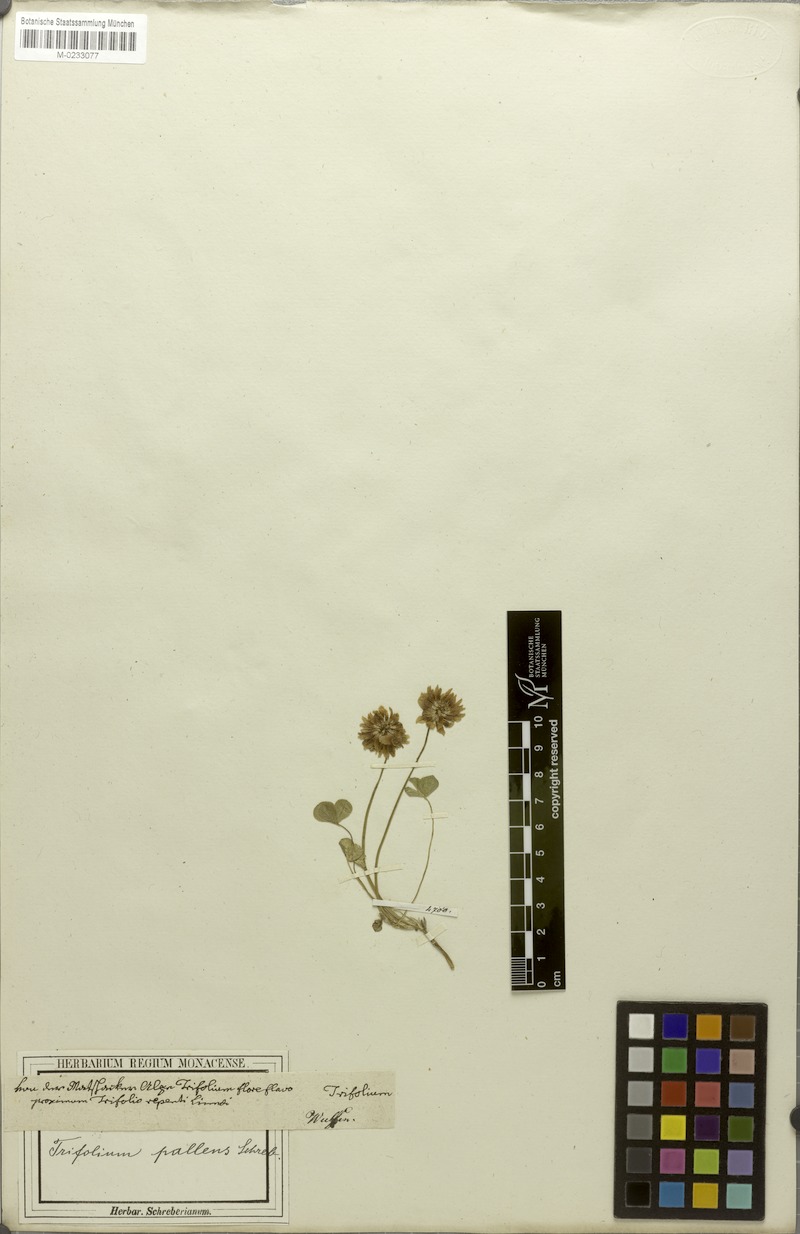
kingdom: Plantae
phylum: Tracheophyta
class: Magnoliopsida
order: Fabales
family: Fabaceae
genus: Trifolium
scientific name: Trifolium pallescens
